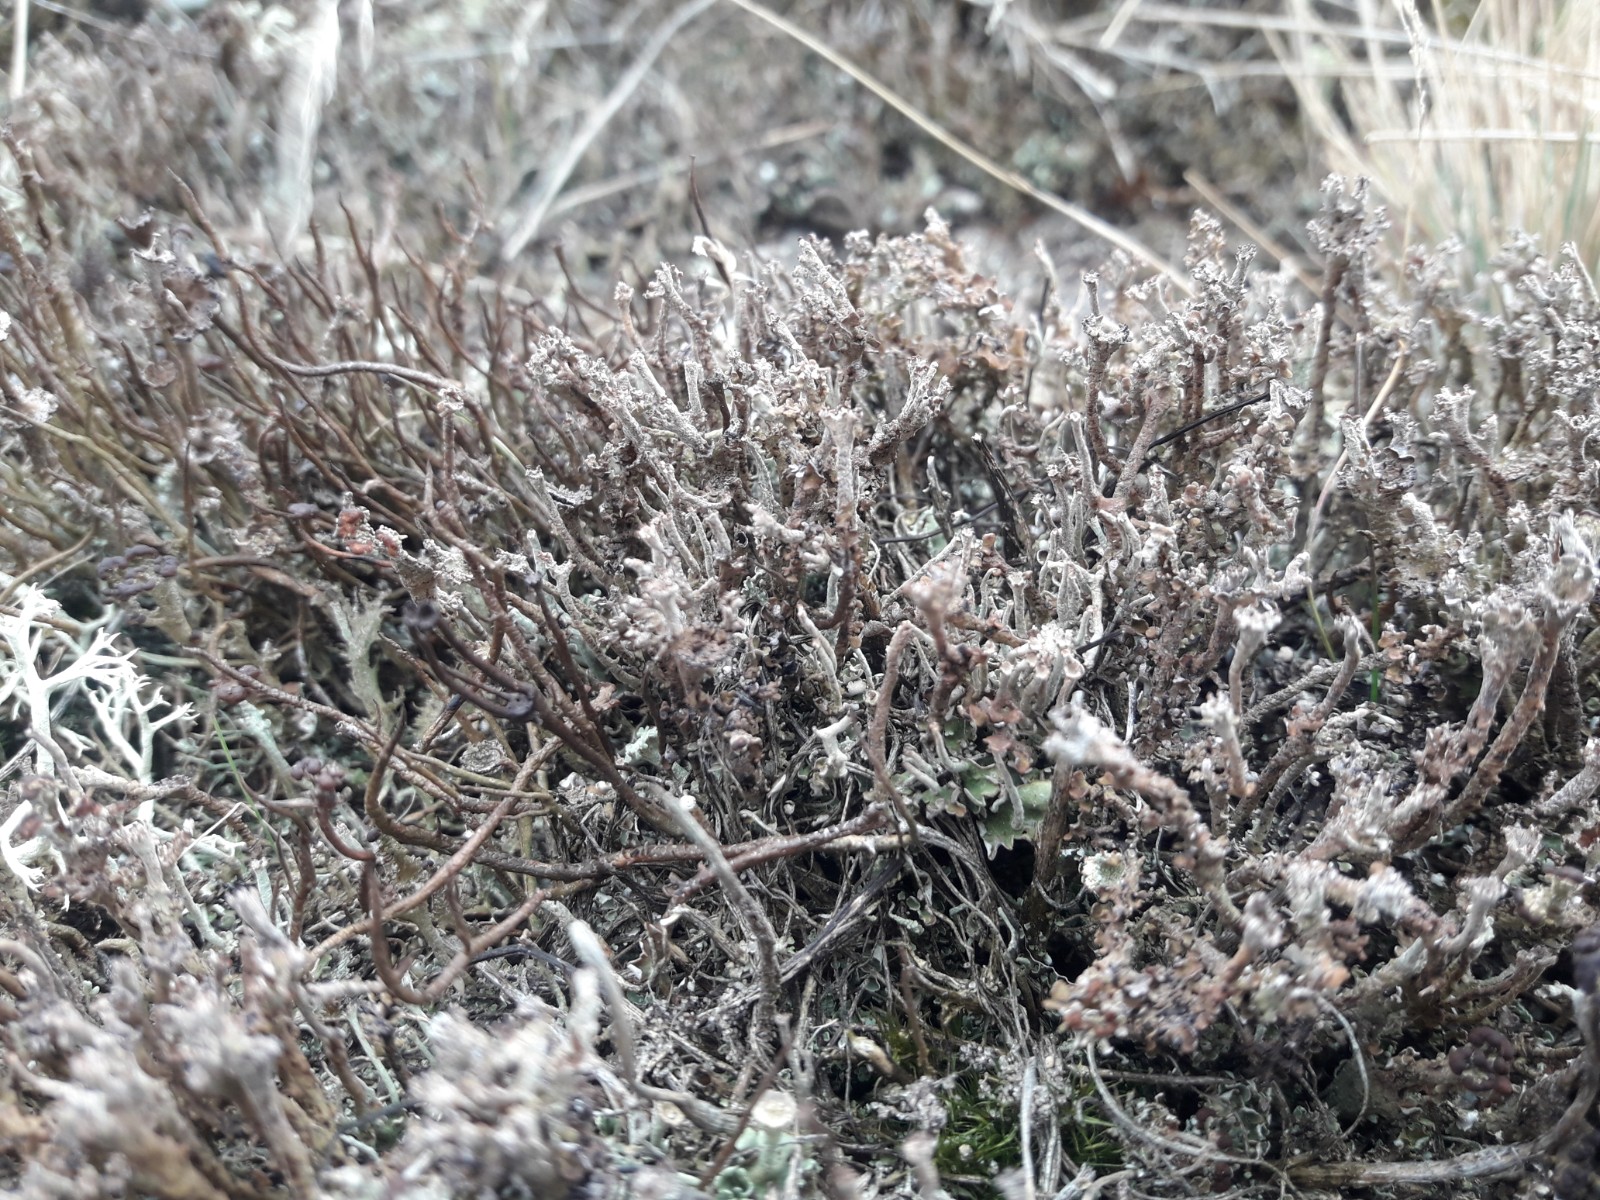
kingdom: Fungi
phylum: Ascomycota
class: Lecanoromycetes
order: Lecanorales
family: Cladoniaceae
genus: Cladonia
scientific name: Cladonia phyllophora
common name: sortfodet bægerlav
